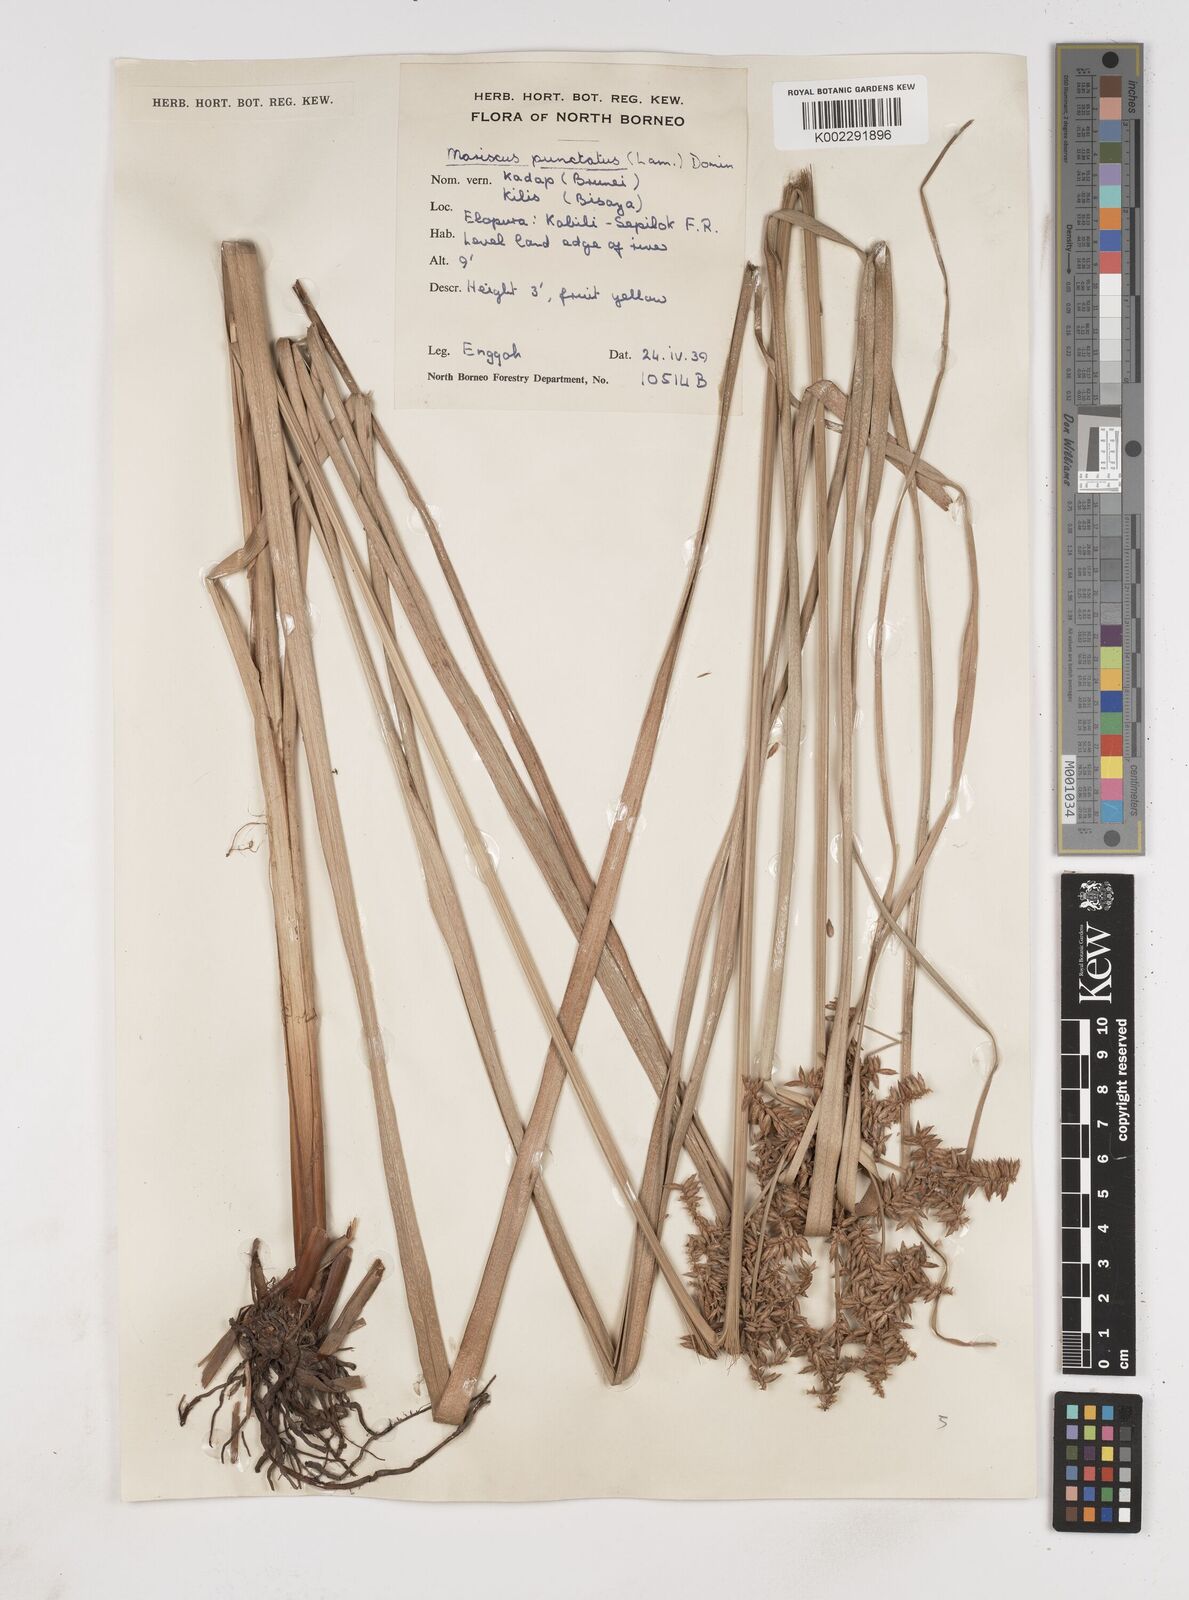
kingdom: Plantae
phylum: Tracheophyta
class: Liliopsida
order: Poales
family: Cyperaceae
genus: Cyperus
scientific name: Cyperus javanicus
